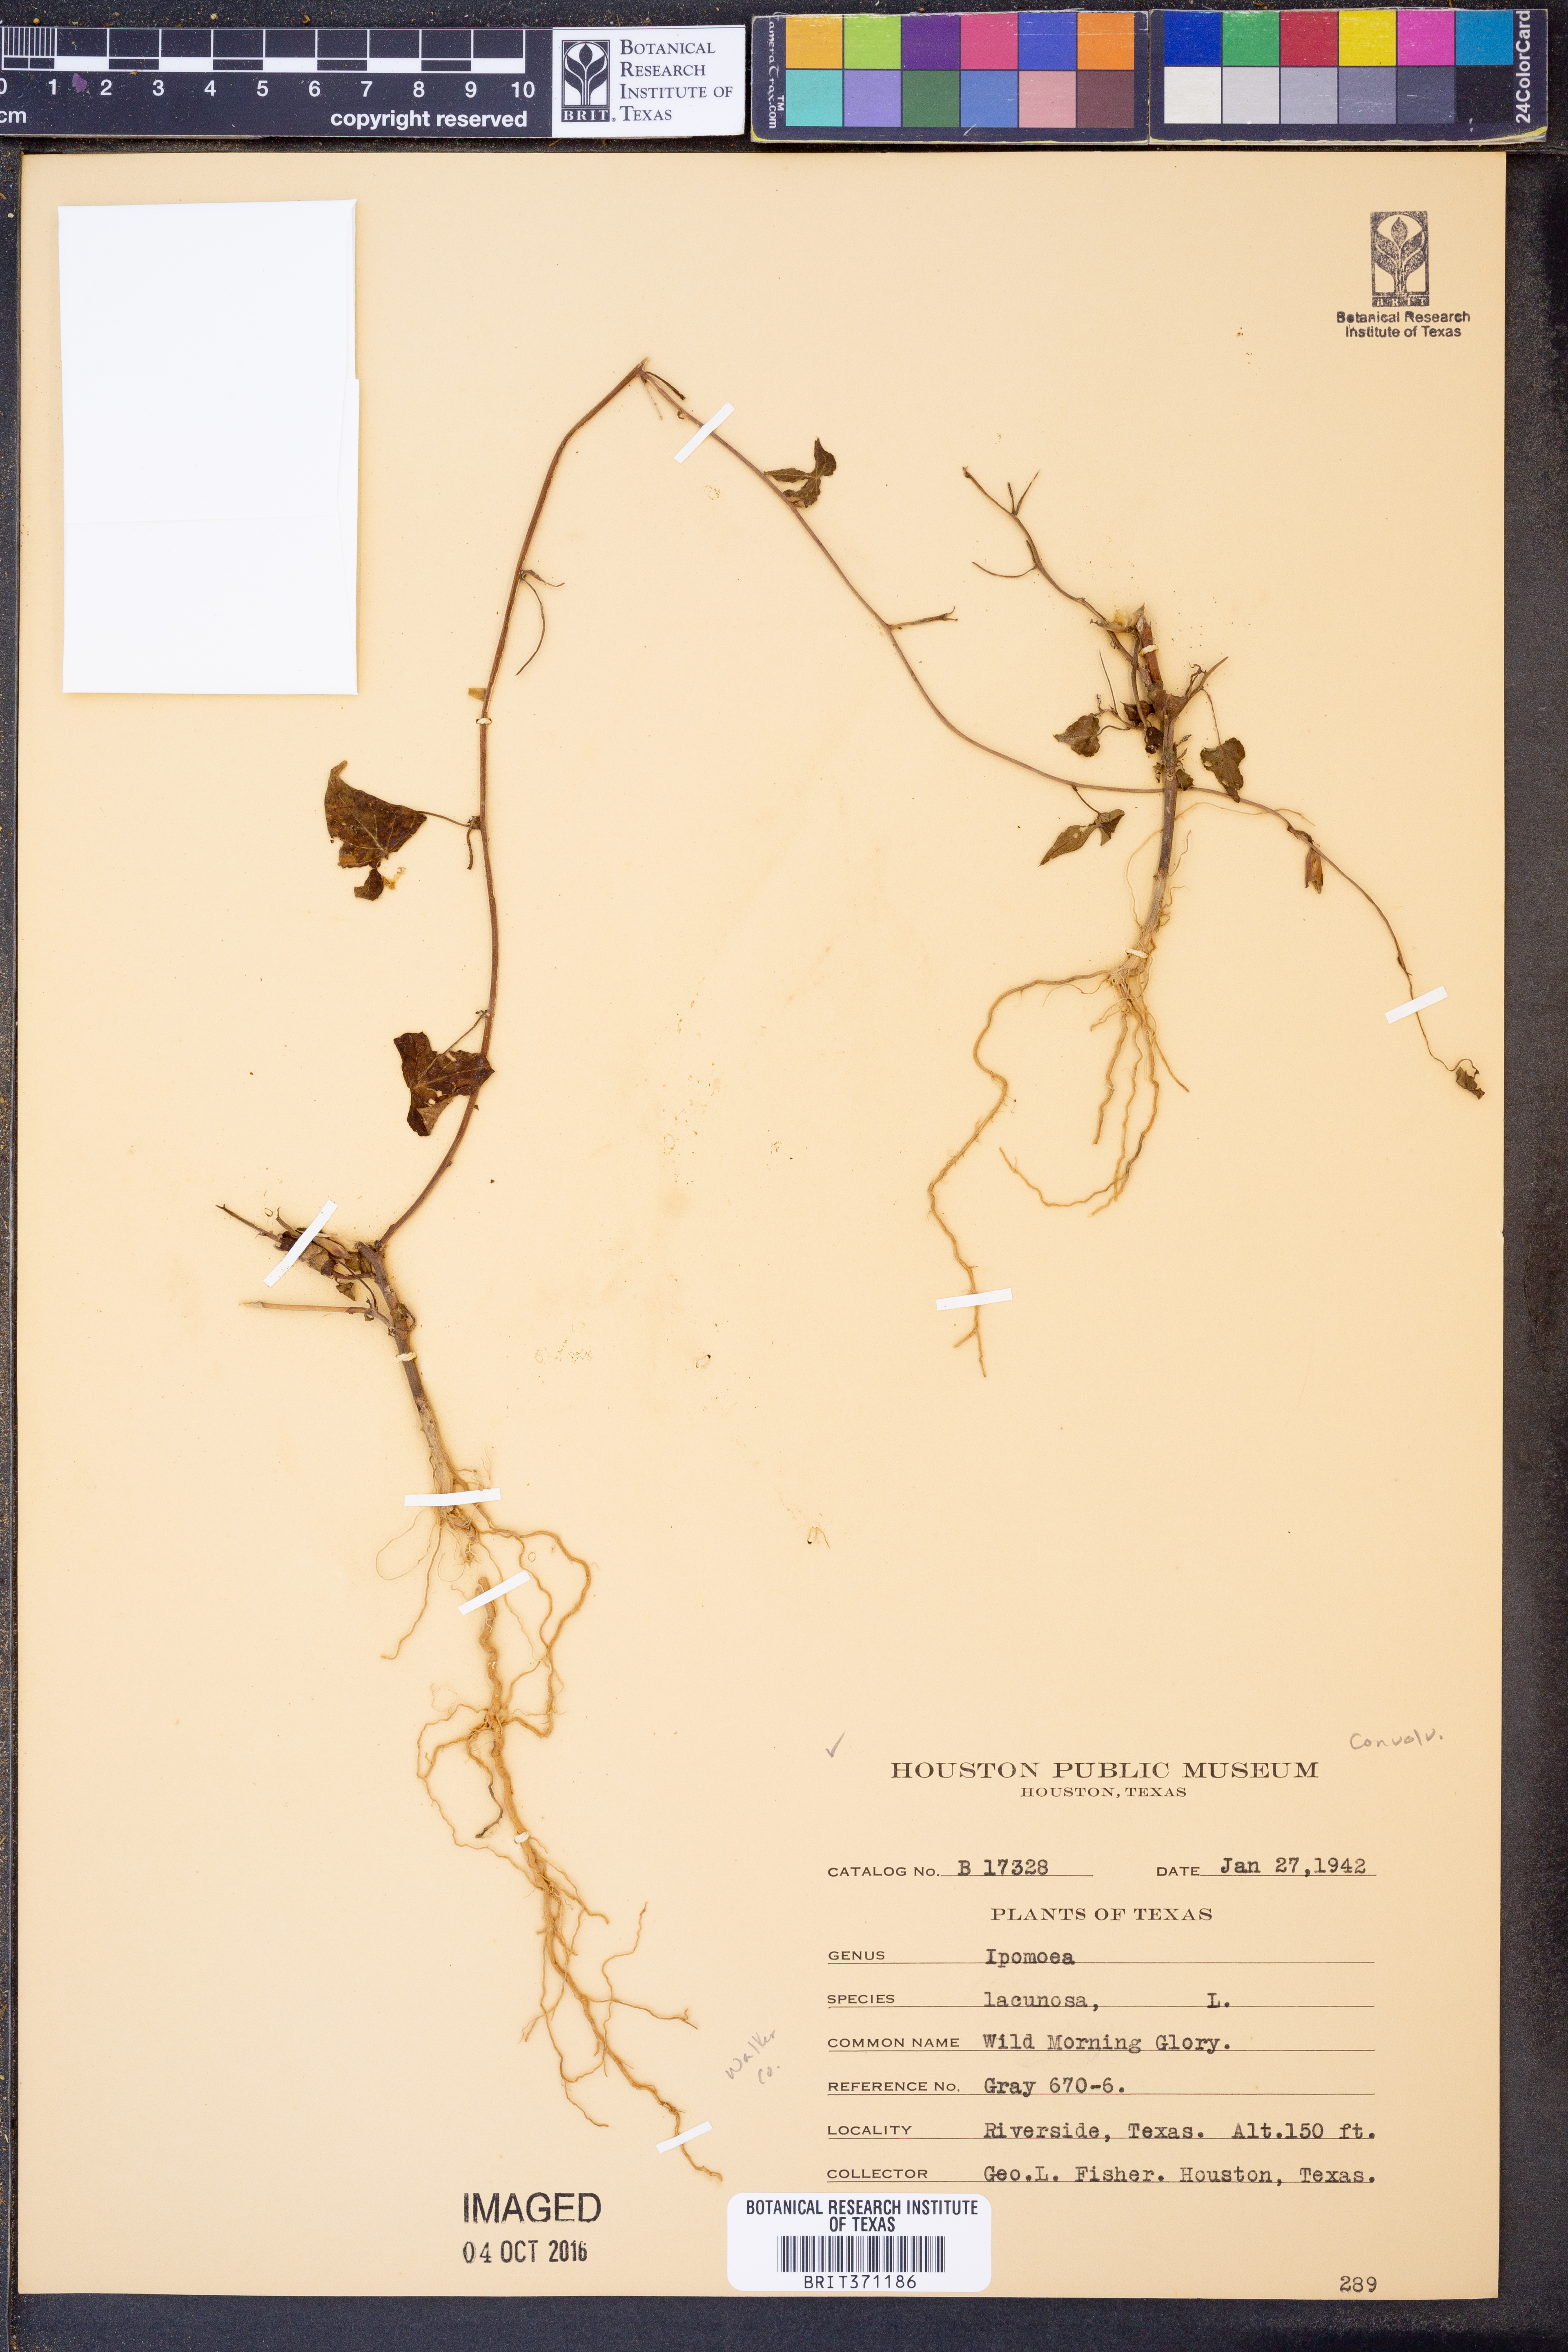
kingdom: Plantae
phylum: Tracheophyta
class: Magnoliopsida
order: Solanales
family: Convolvulaceae
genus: Ipomoea
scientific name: Ipomoea lacunosa
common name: White morning-glory
